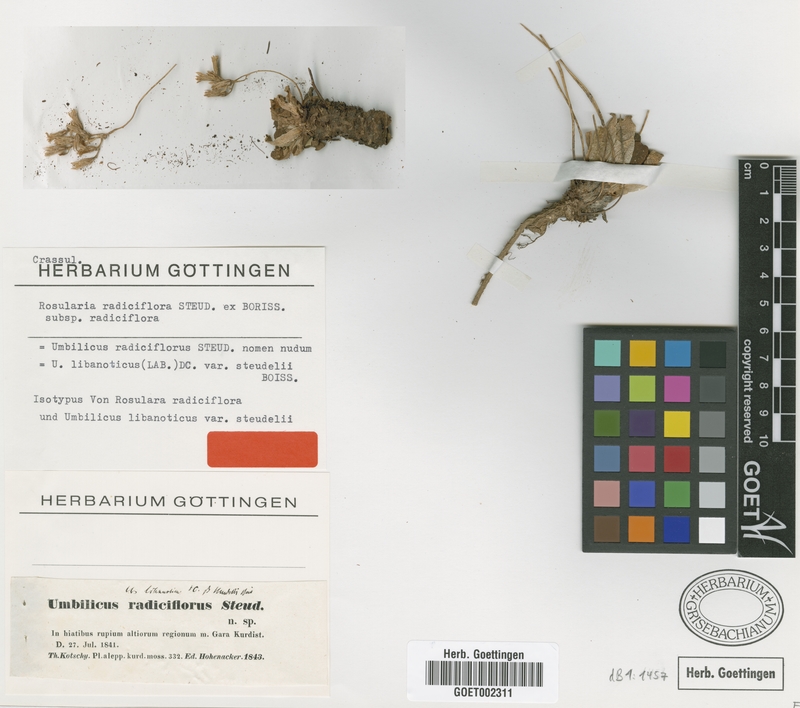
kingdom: Plantae
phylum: Tracheophyta
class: Magnoliopsida
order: Saxifragales
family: Crassulaceae
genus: Rosularia
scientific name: Rosularia sempervivum
